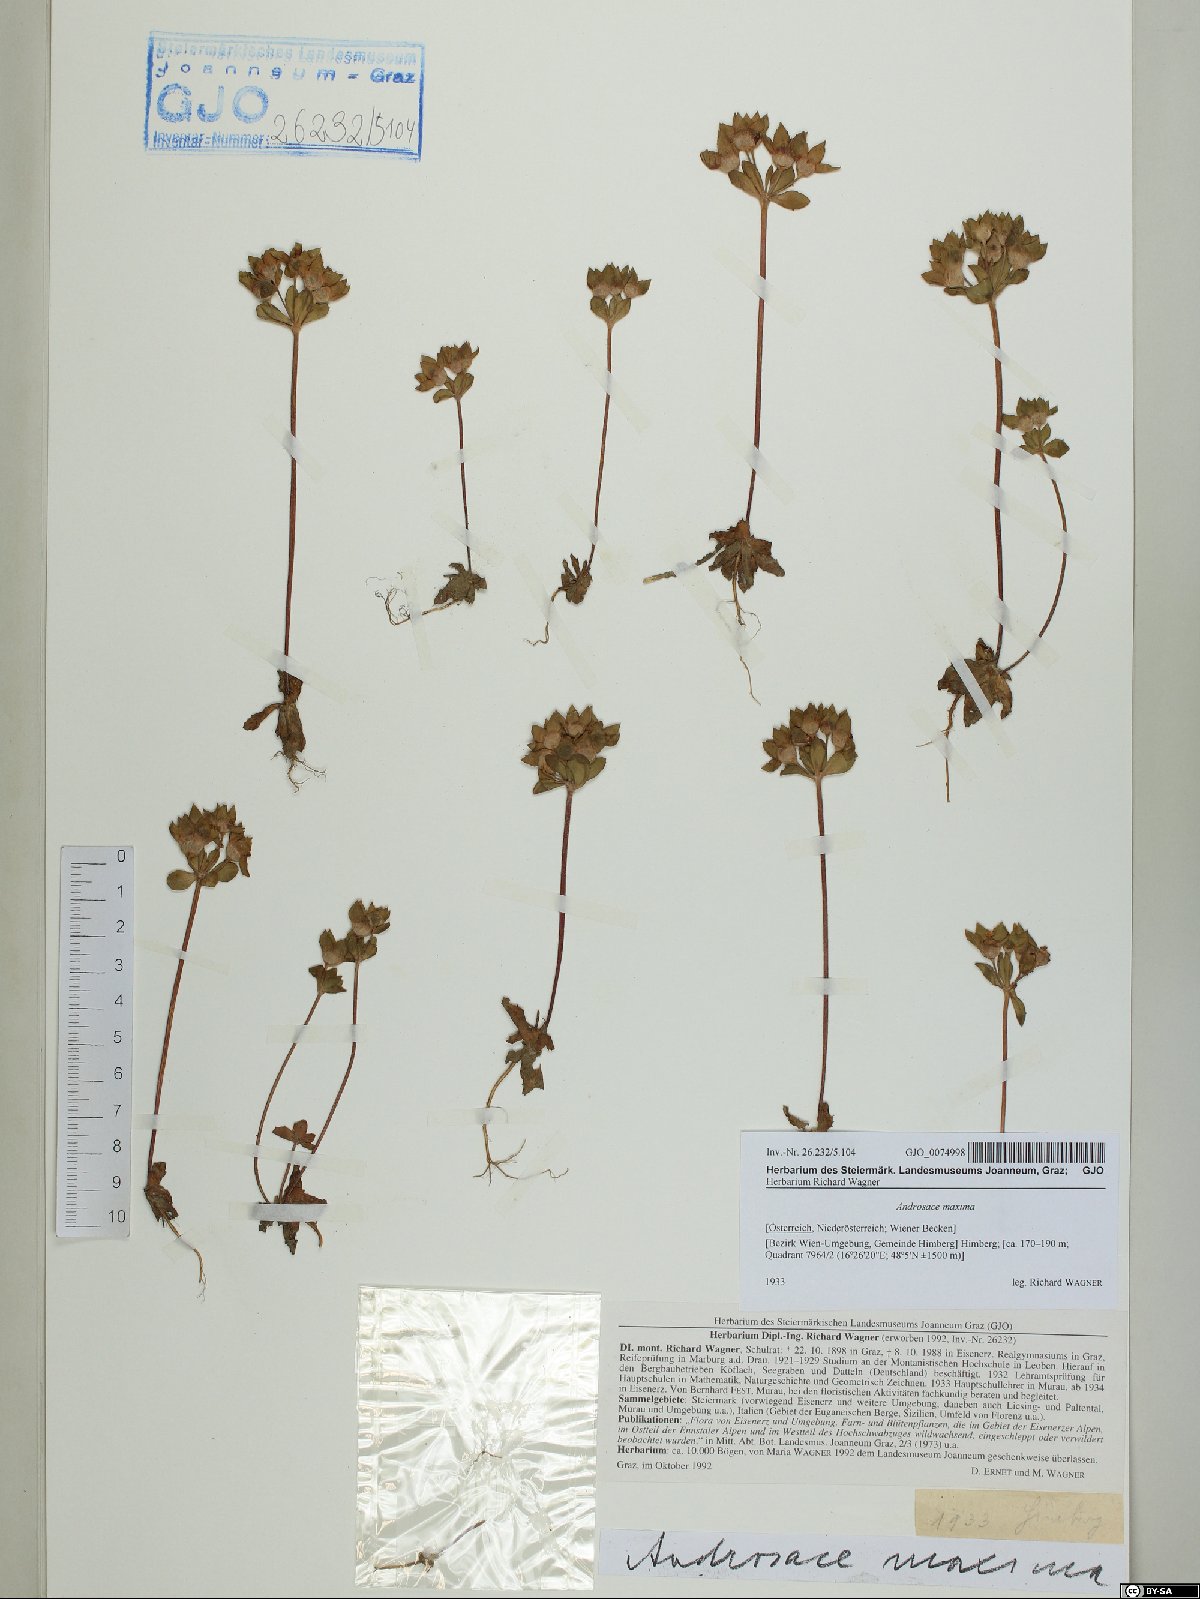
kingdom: Plantae
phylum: Tracheophyta
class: Magnoliopsida
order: Ericales
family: Primulaceae
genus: Androsace
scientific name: Androsace maxima
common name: Annual androsace
